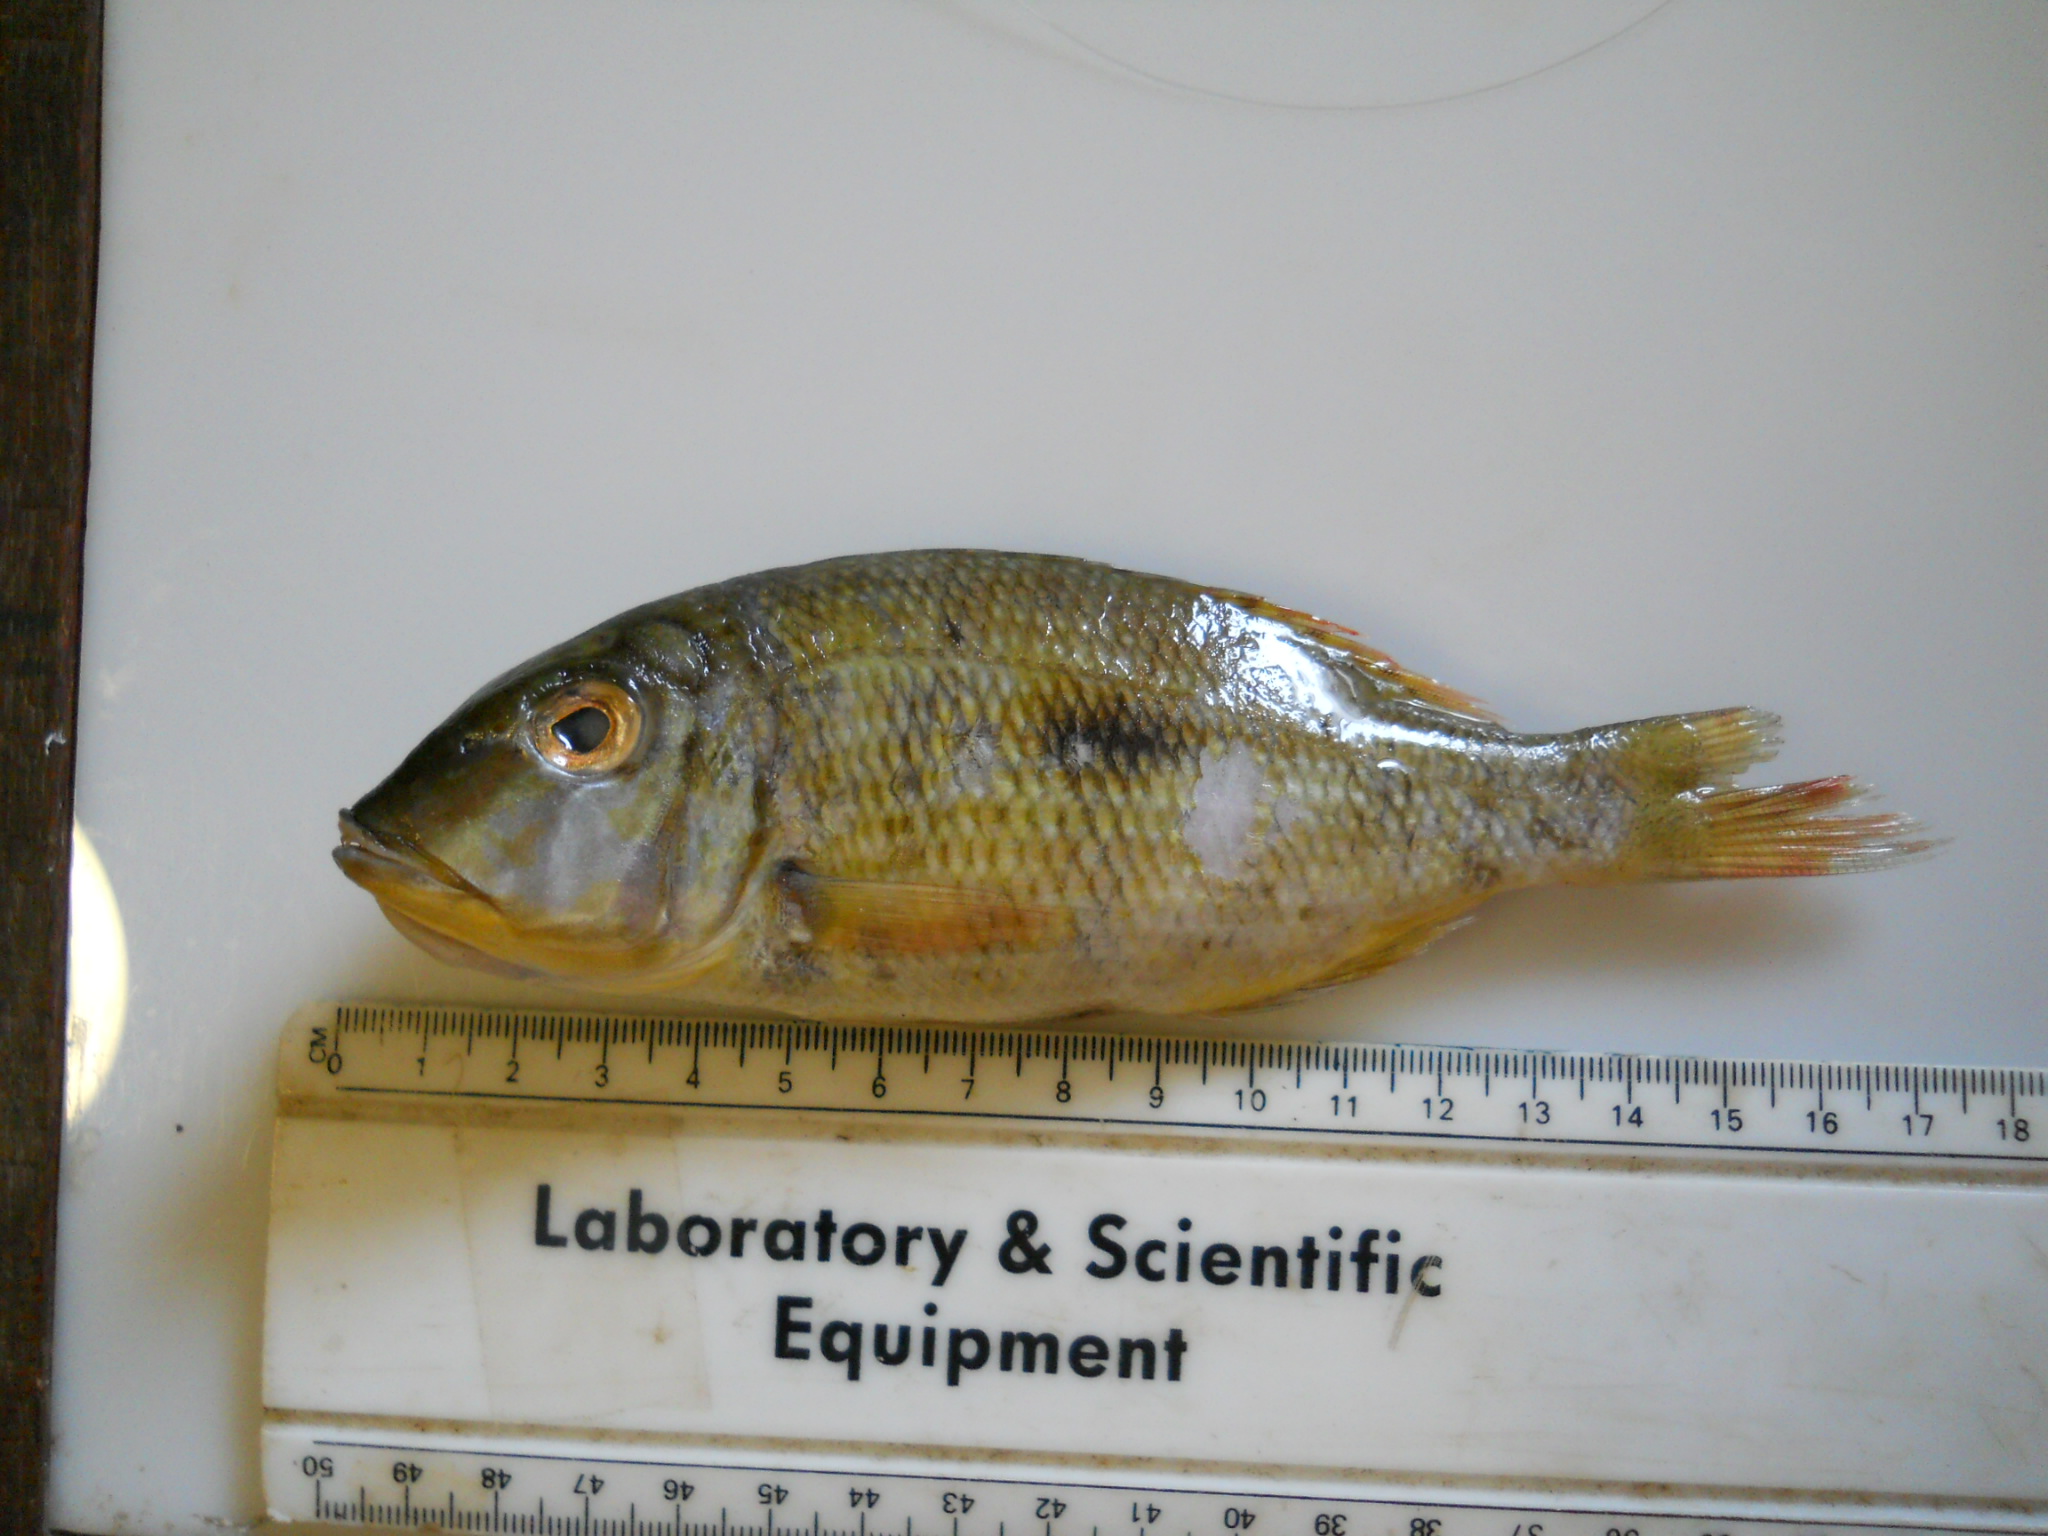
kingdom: Animalia
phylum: Chordata
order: Perciformes
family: Lethrinidae
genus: Lethrinus
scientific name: Lethrinus harak
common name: Blackspot emperor
